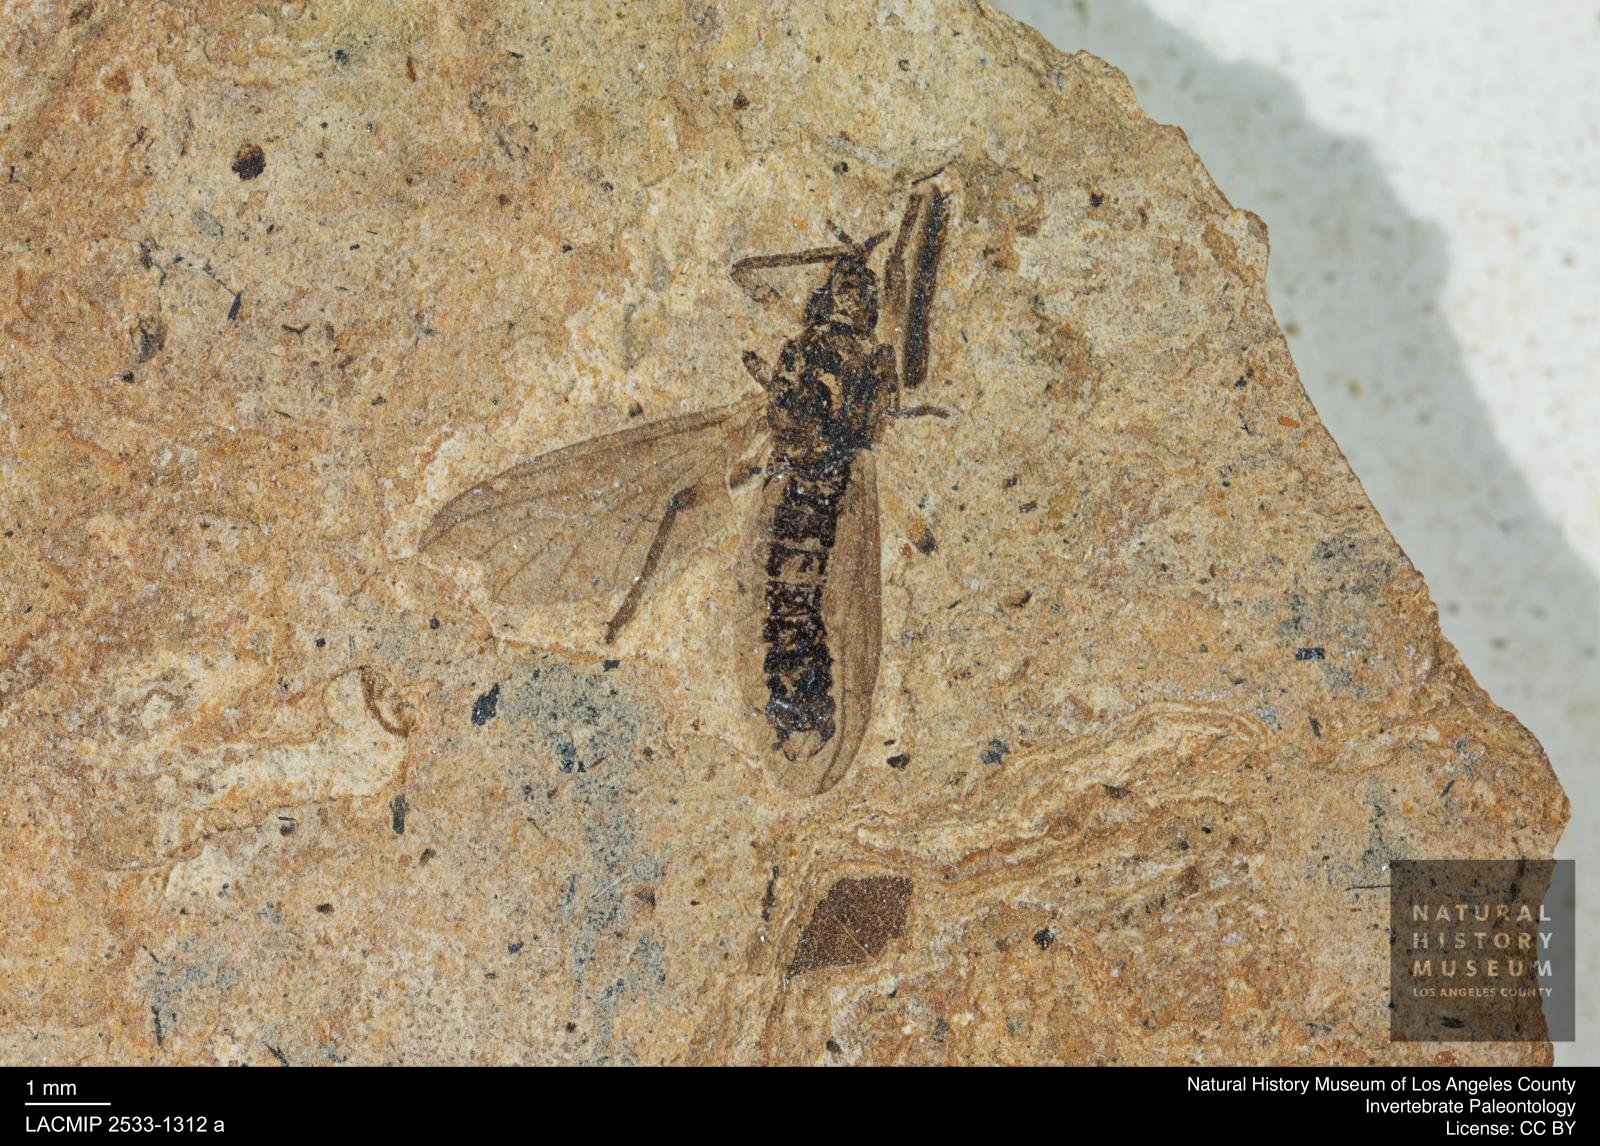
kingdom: Animalia
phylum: Arthropoda
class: Insecta
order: Diptera
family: Bibionidae
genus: Plecia
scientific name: Plecia
